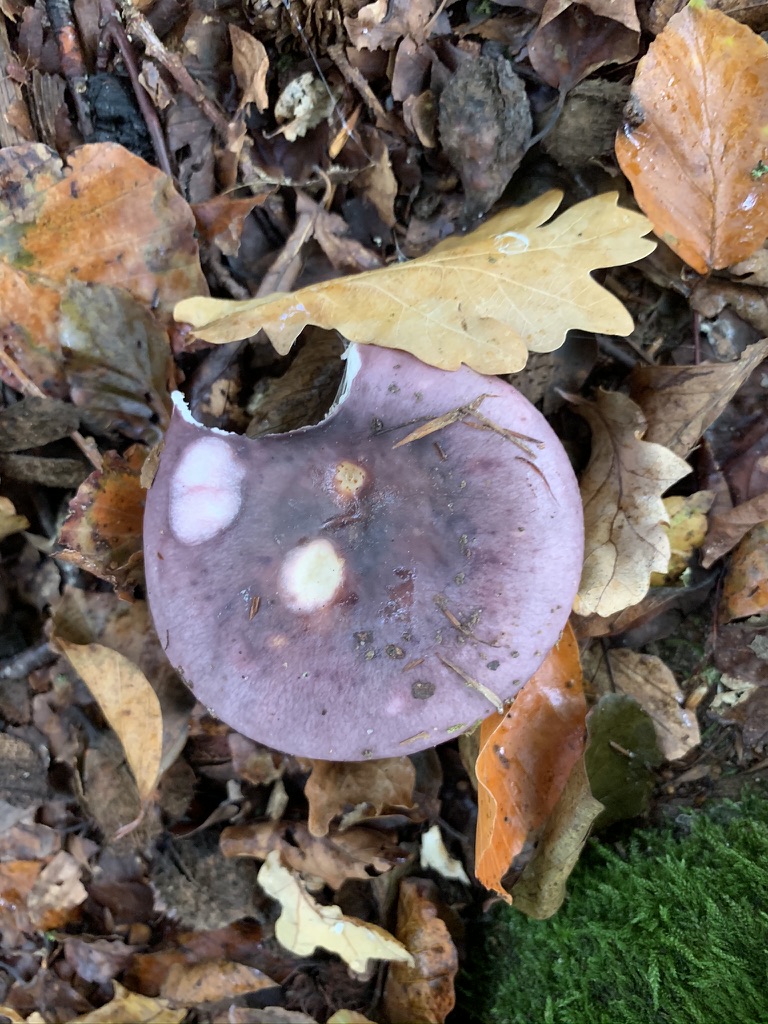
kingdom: Fungi
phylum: Basidiomycota
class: Agaricomycetes
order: Russulales
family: Russulaceae
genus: Russula
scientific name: Russula cyanoxantha
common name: broget skørhat
